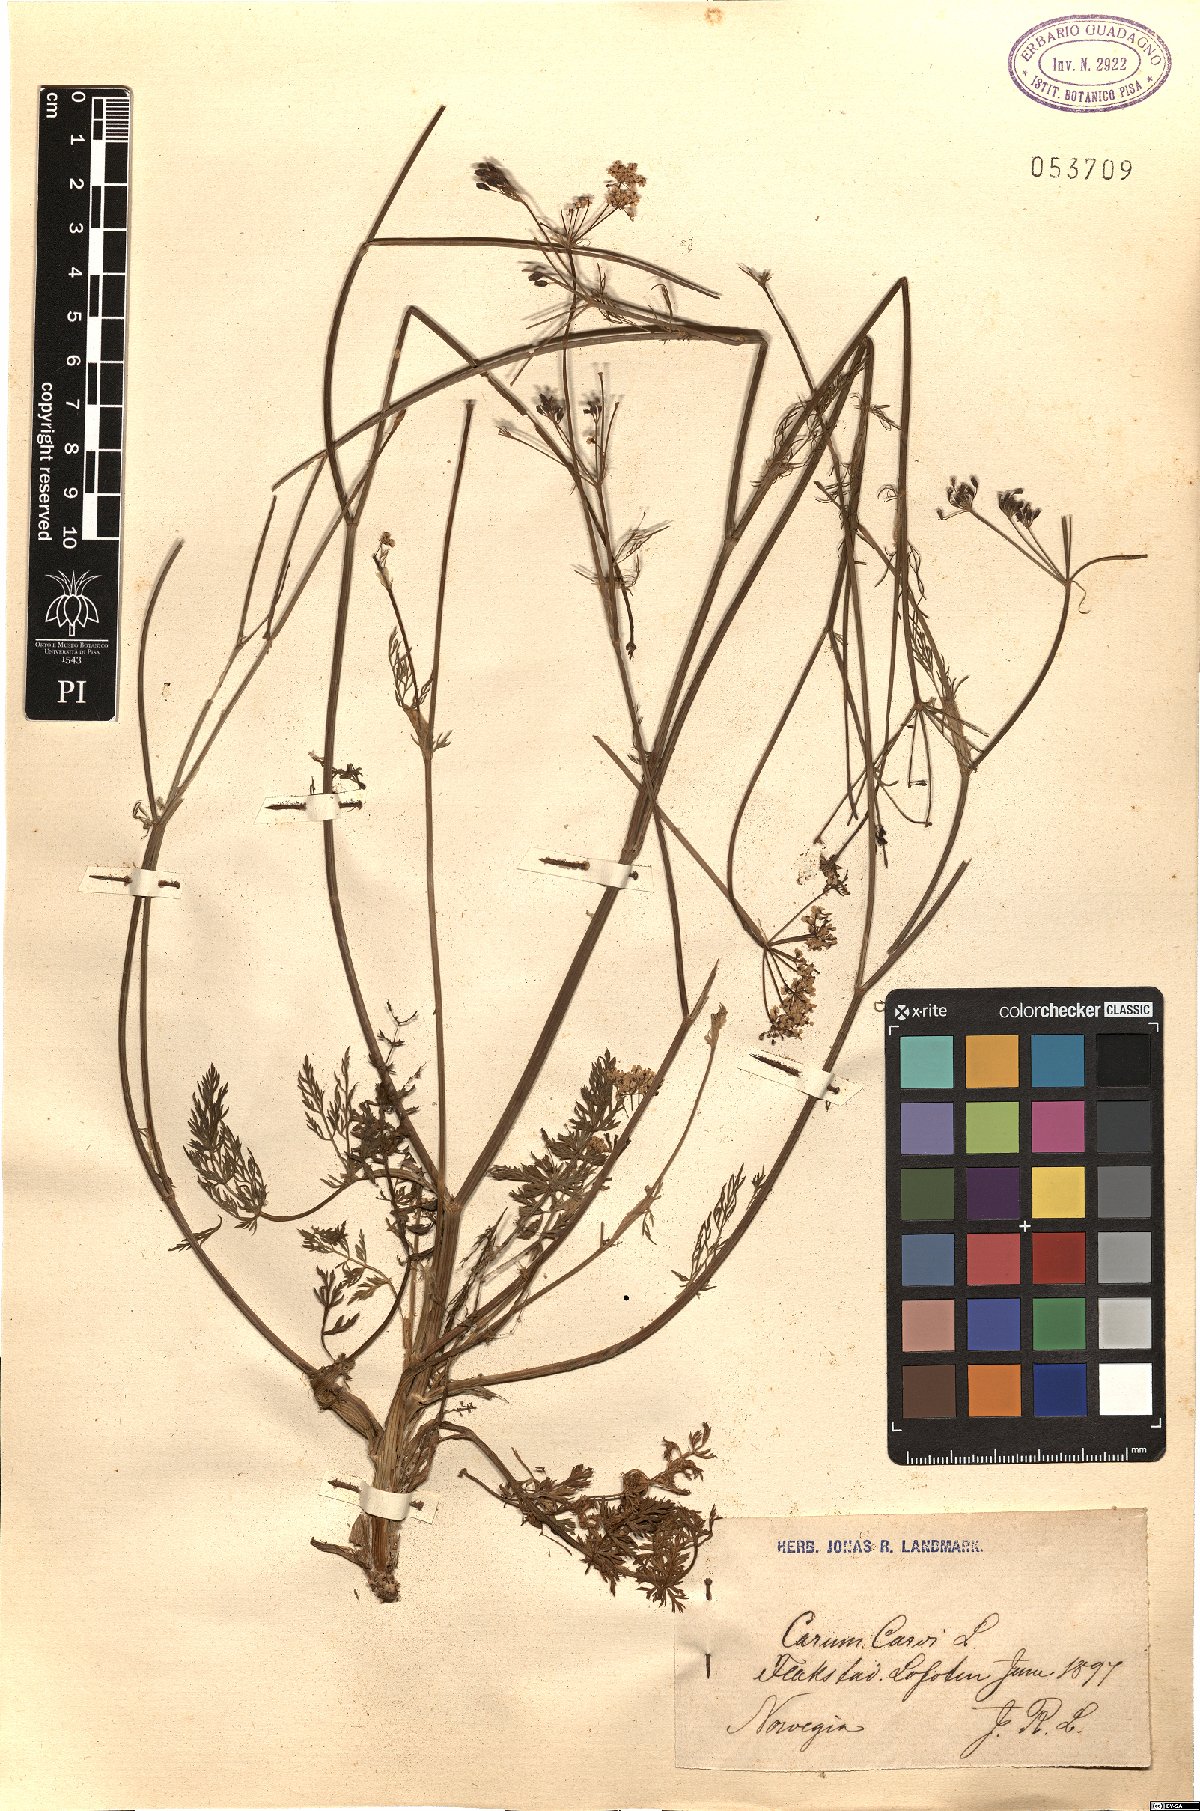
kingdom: Plantae
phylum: Tracheophyta
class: Magnoliopsida
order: Apiales
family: Apiaceae
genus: Carum
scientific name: Carum carvi
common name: Caraway
